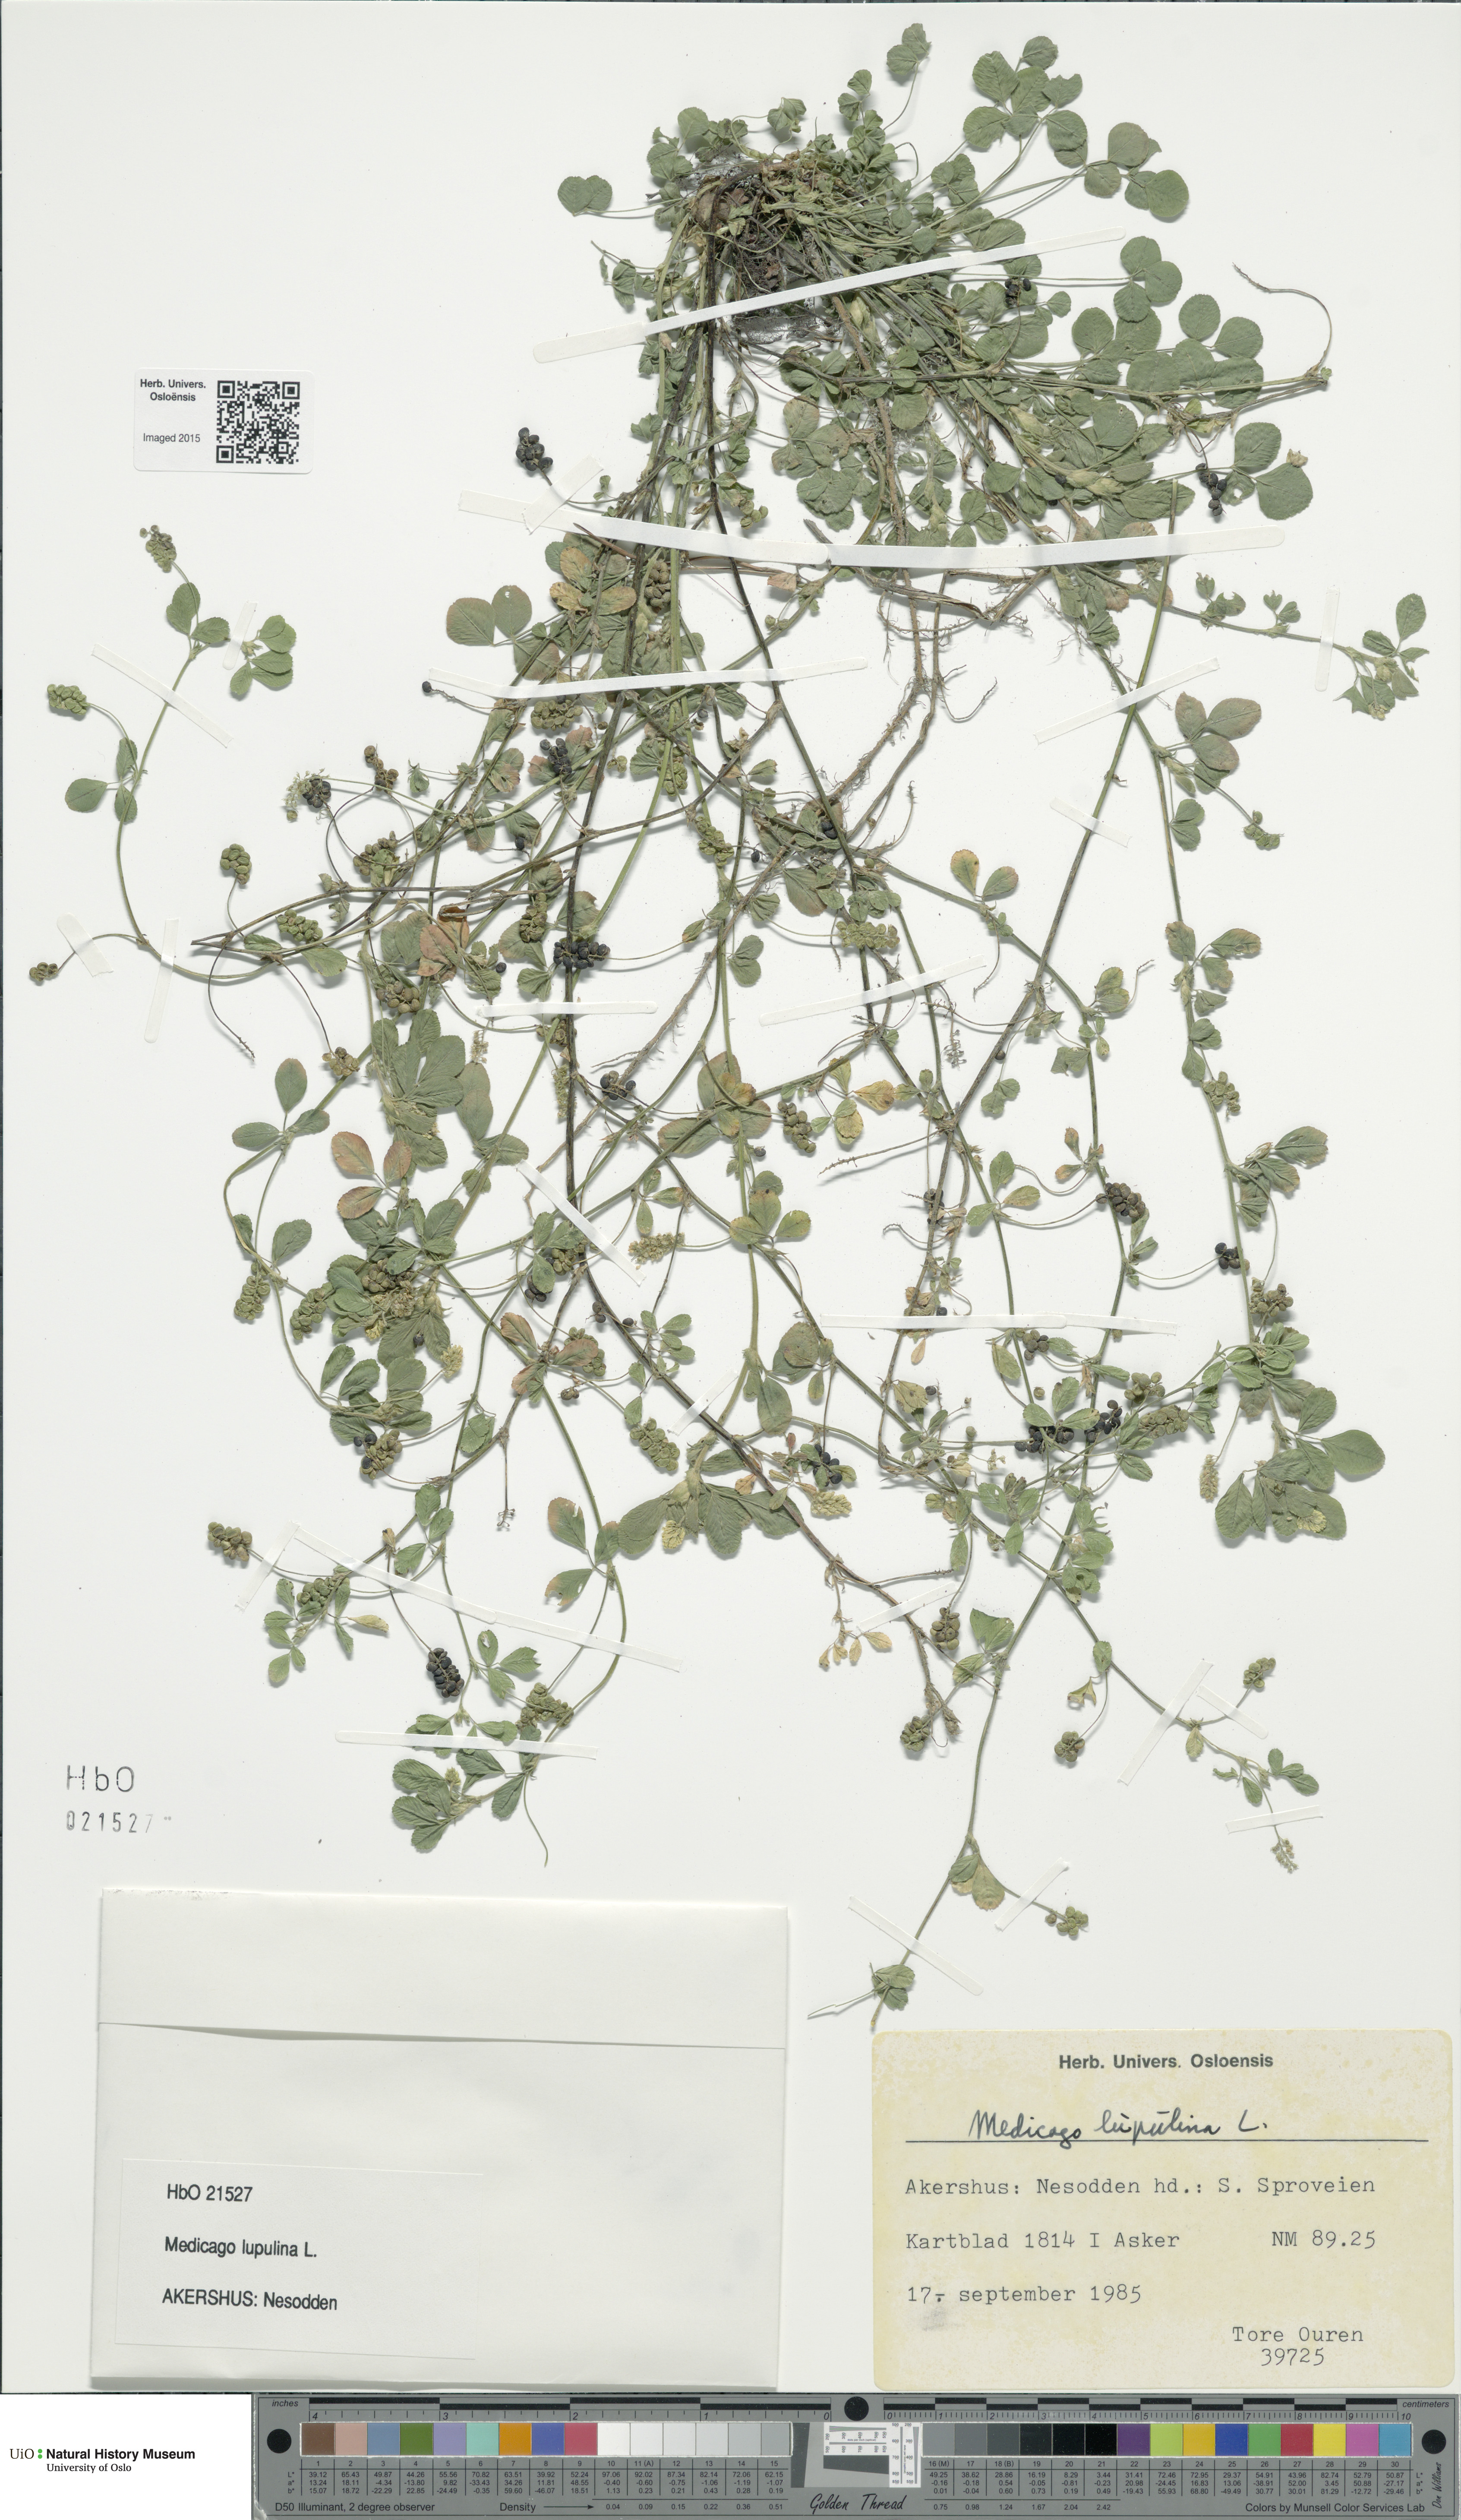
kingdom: Plantae
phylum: Tracheophyta
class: Magnoliopsida
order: Fabales
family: Fabaceae
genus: Medicago
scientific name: Medicago lupulina
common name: Black medick
